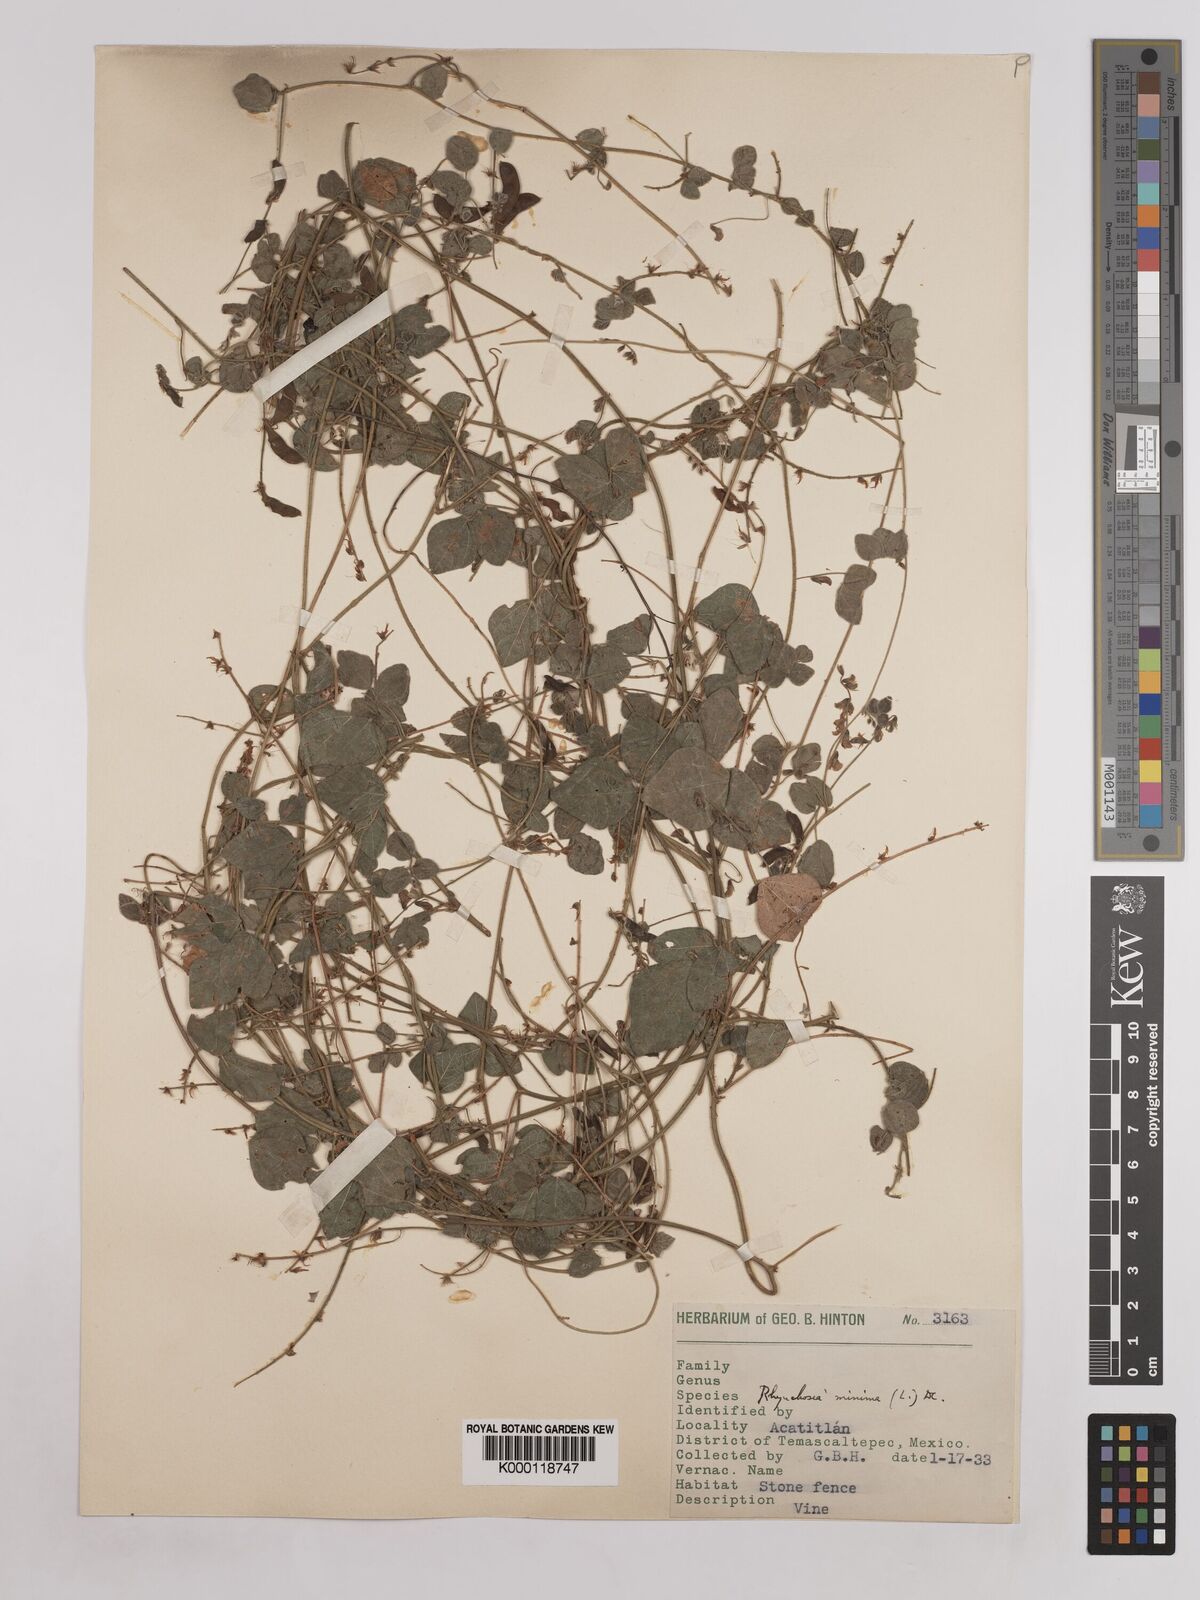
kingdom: Plantae
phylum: Tracheophyta
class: Magnoliopsida
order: Fabales
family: Fabaceae
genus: Rhynchosia
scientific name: Rhynchosia minima
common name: Least snoutbean
